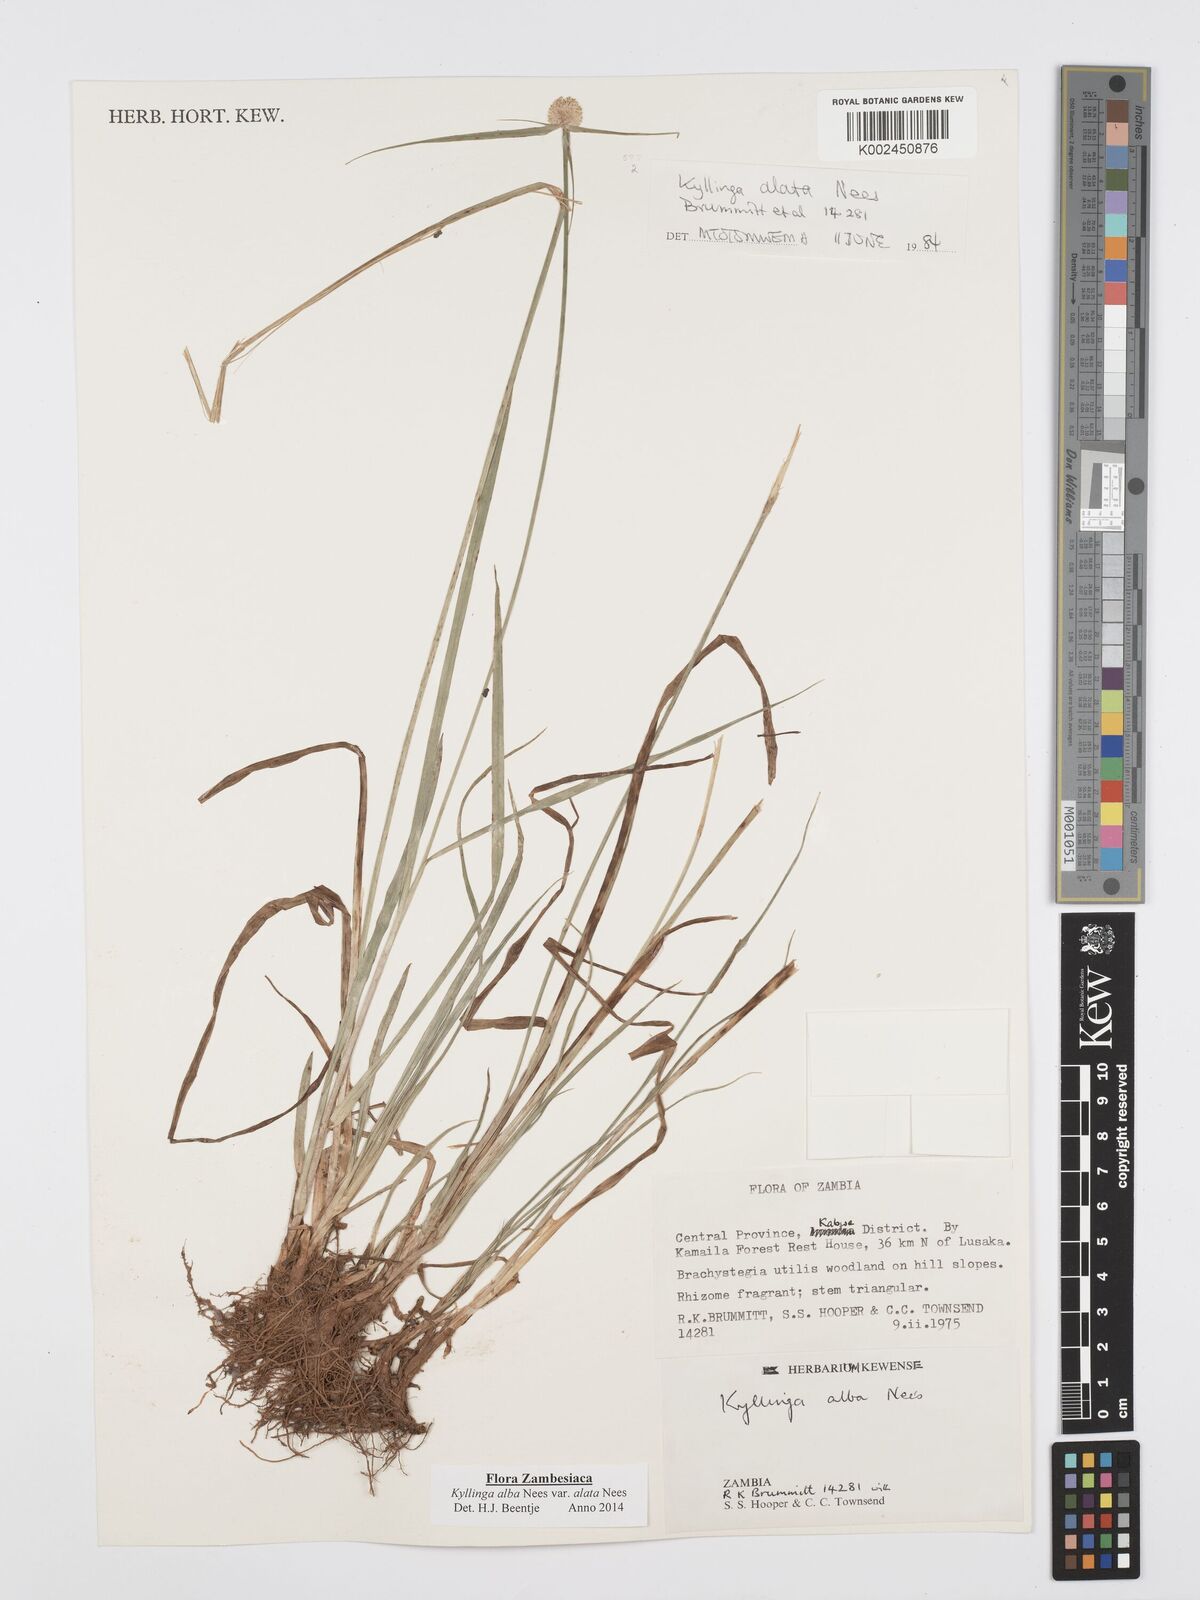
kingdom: Plantae
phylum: Tracheophyta
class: Liliopsida
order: Poales
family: Cyperaceae
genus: Cyperus
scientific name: Cyperus
